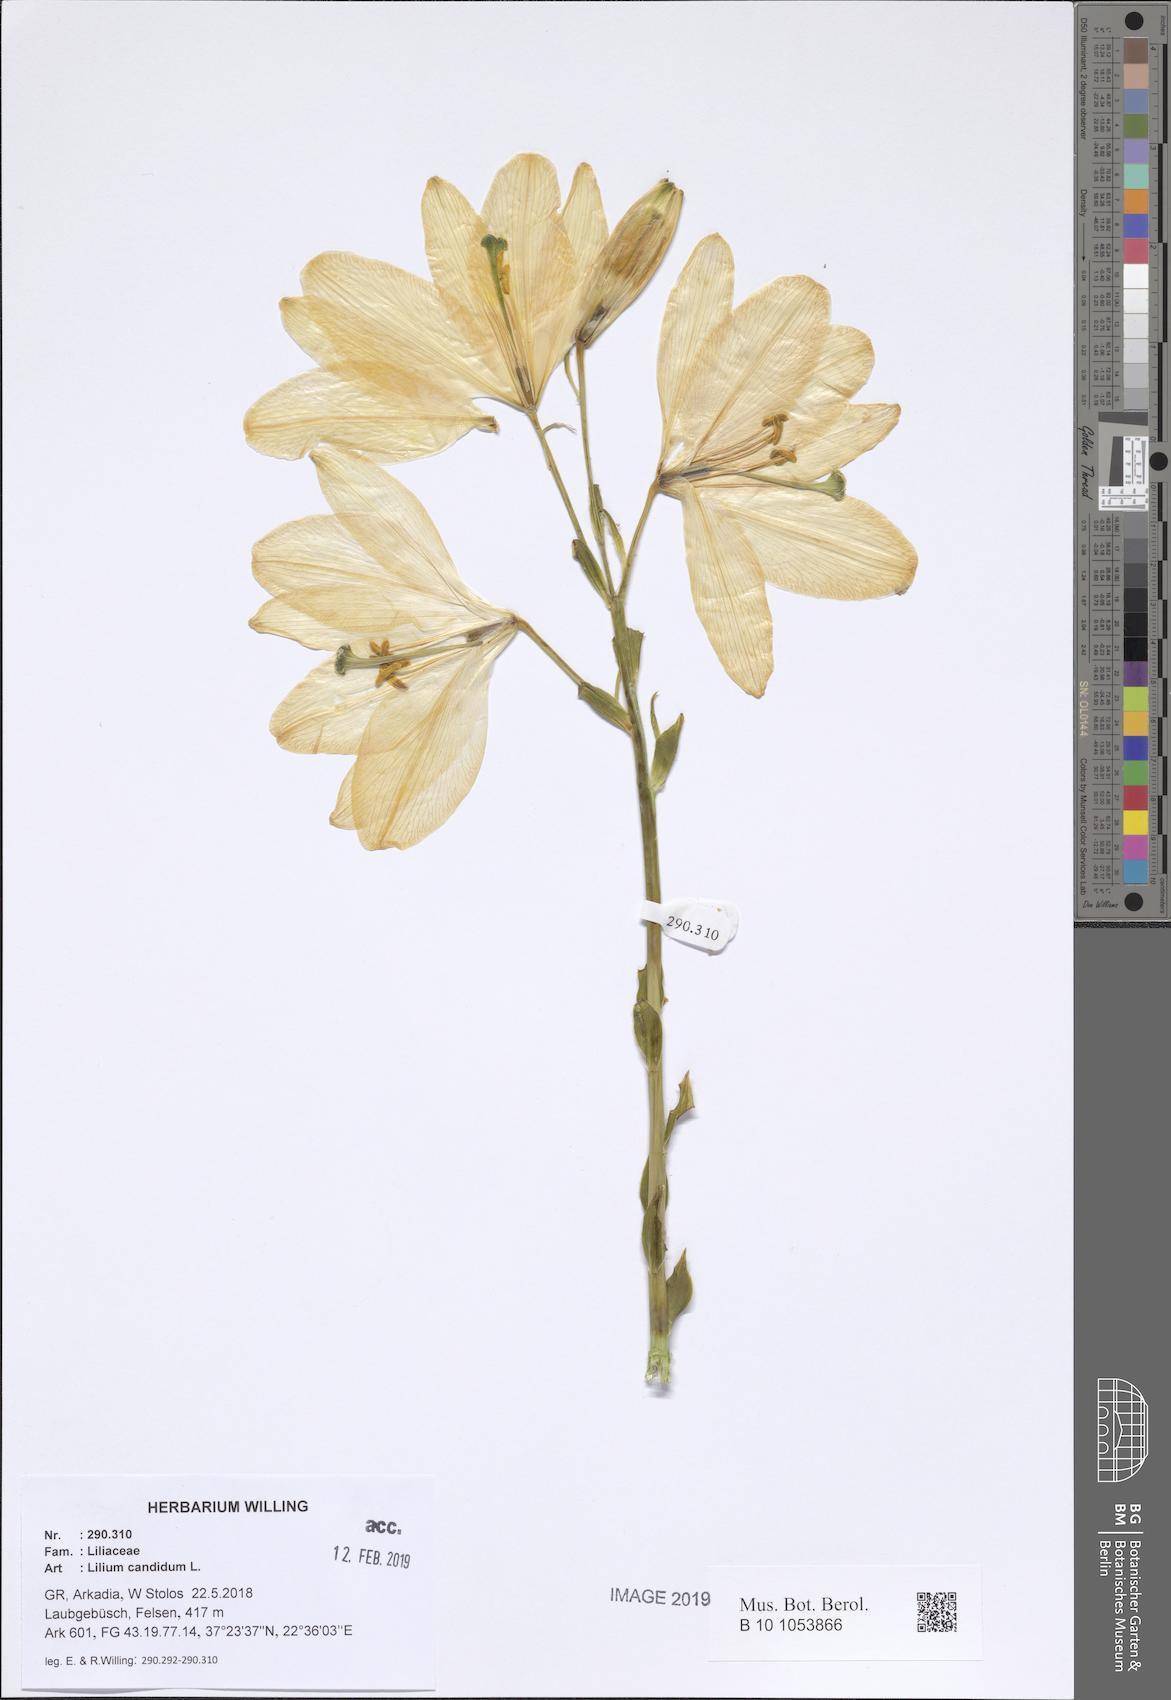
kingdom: Plantae
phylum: Tracheophyta
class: Liliopsida
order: Liliales
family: Liliaceae
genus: Lilium
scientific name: Lilium candidum
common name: Madonna lily
